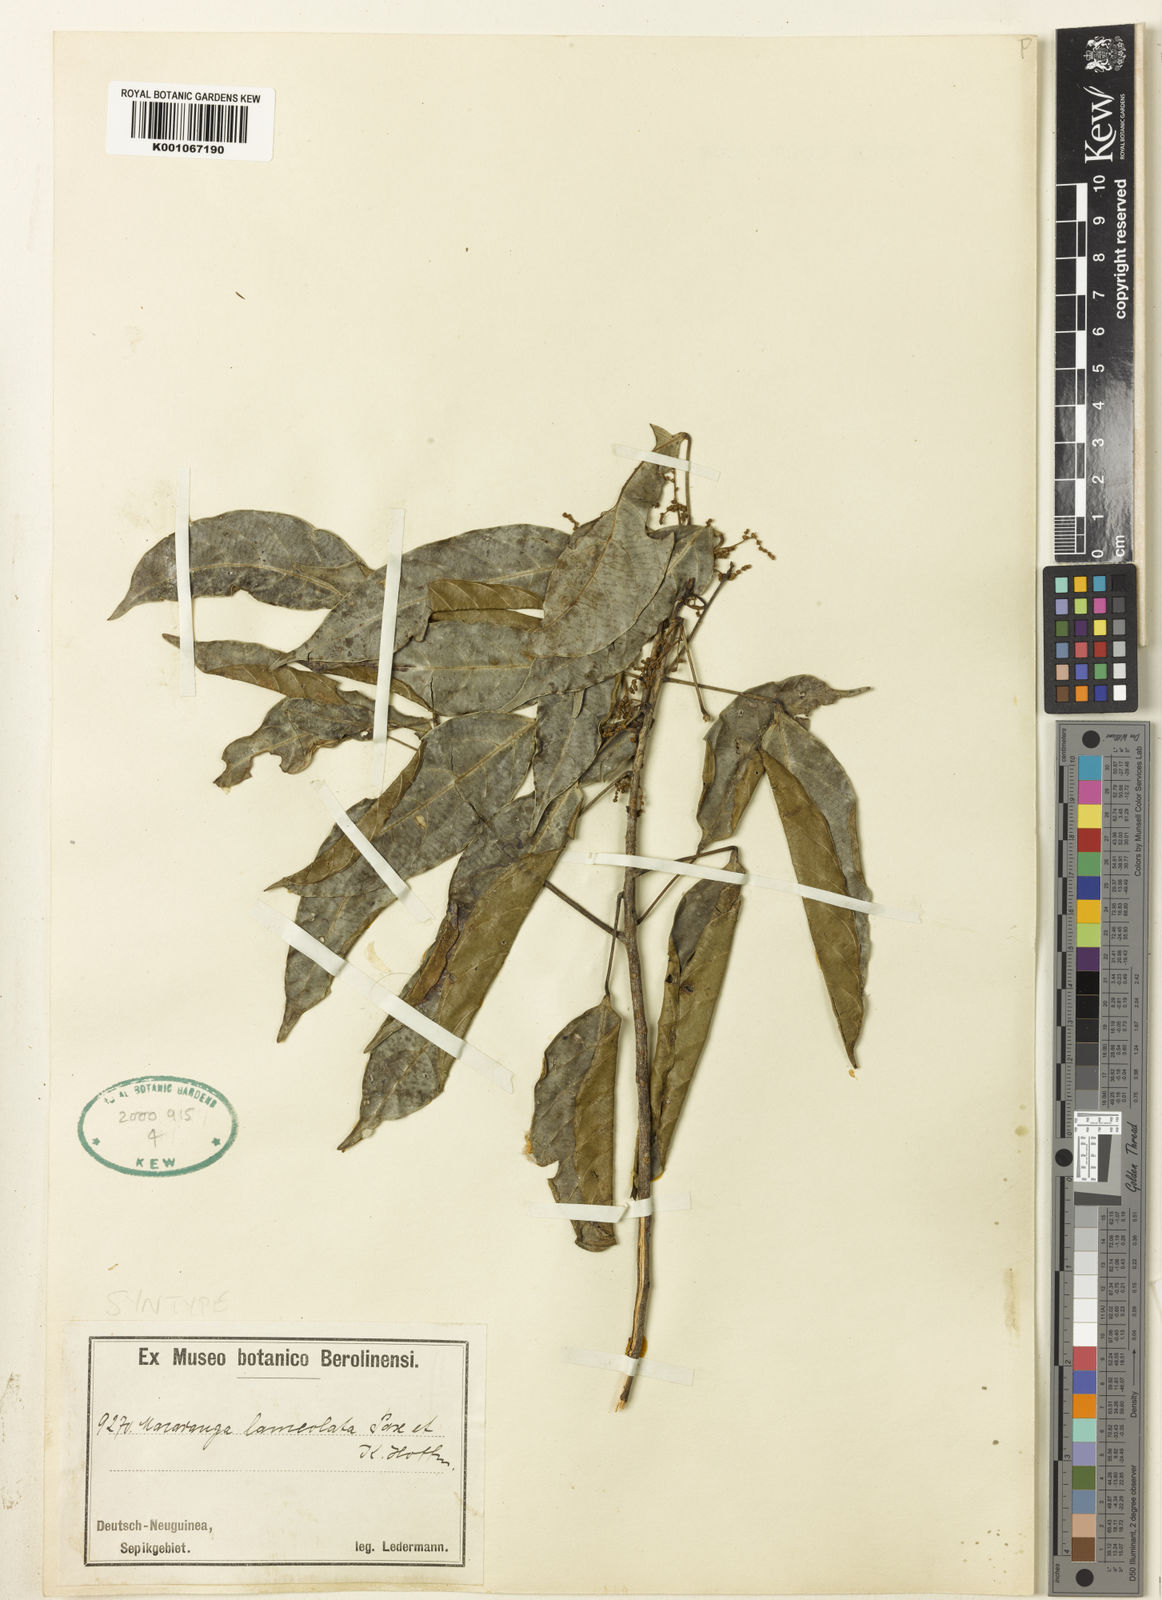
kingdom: Plantae
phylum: Tracheophyta
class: Magnoliopsida
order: Malpighiales
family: Euphorbiaceae
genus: Macaranga
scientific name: Macaranga lanceolata
